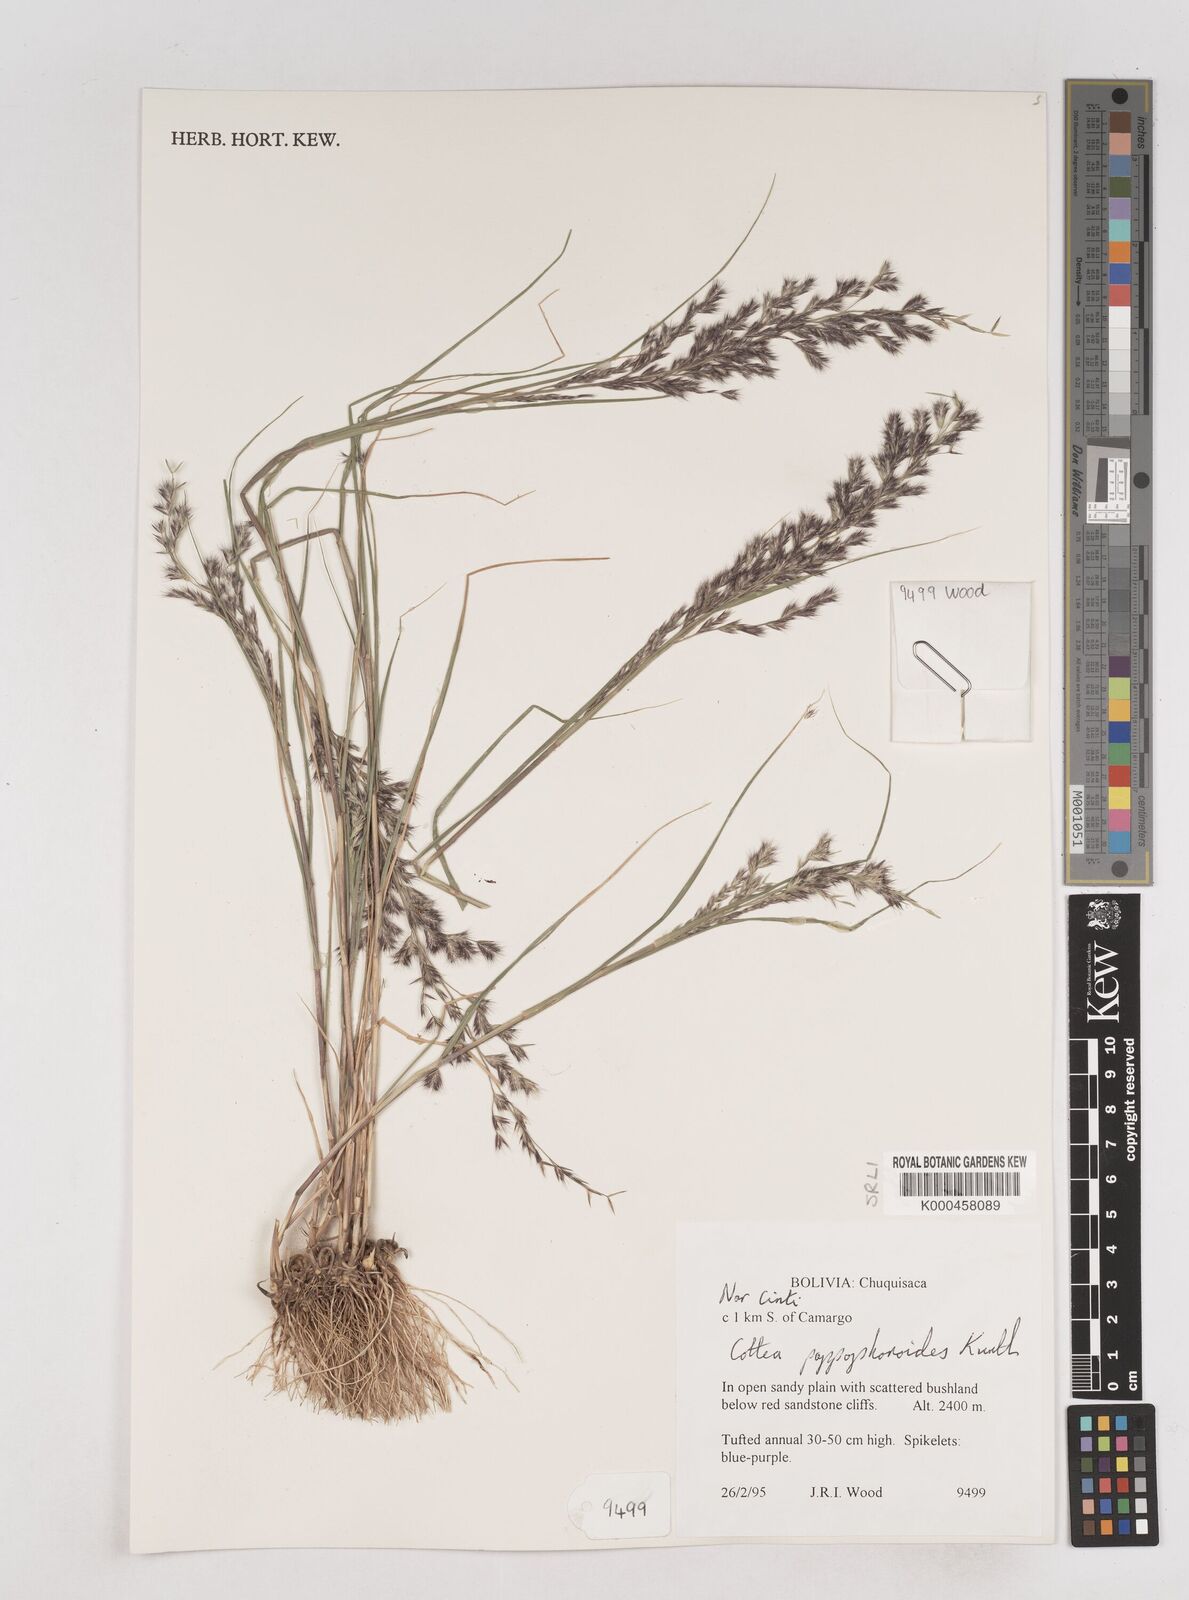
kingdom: Plantae
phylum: Tracheophyta
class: Liliopsida
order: Poales
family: Poaceae
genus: Cottea
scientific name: Cottea
